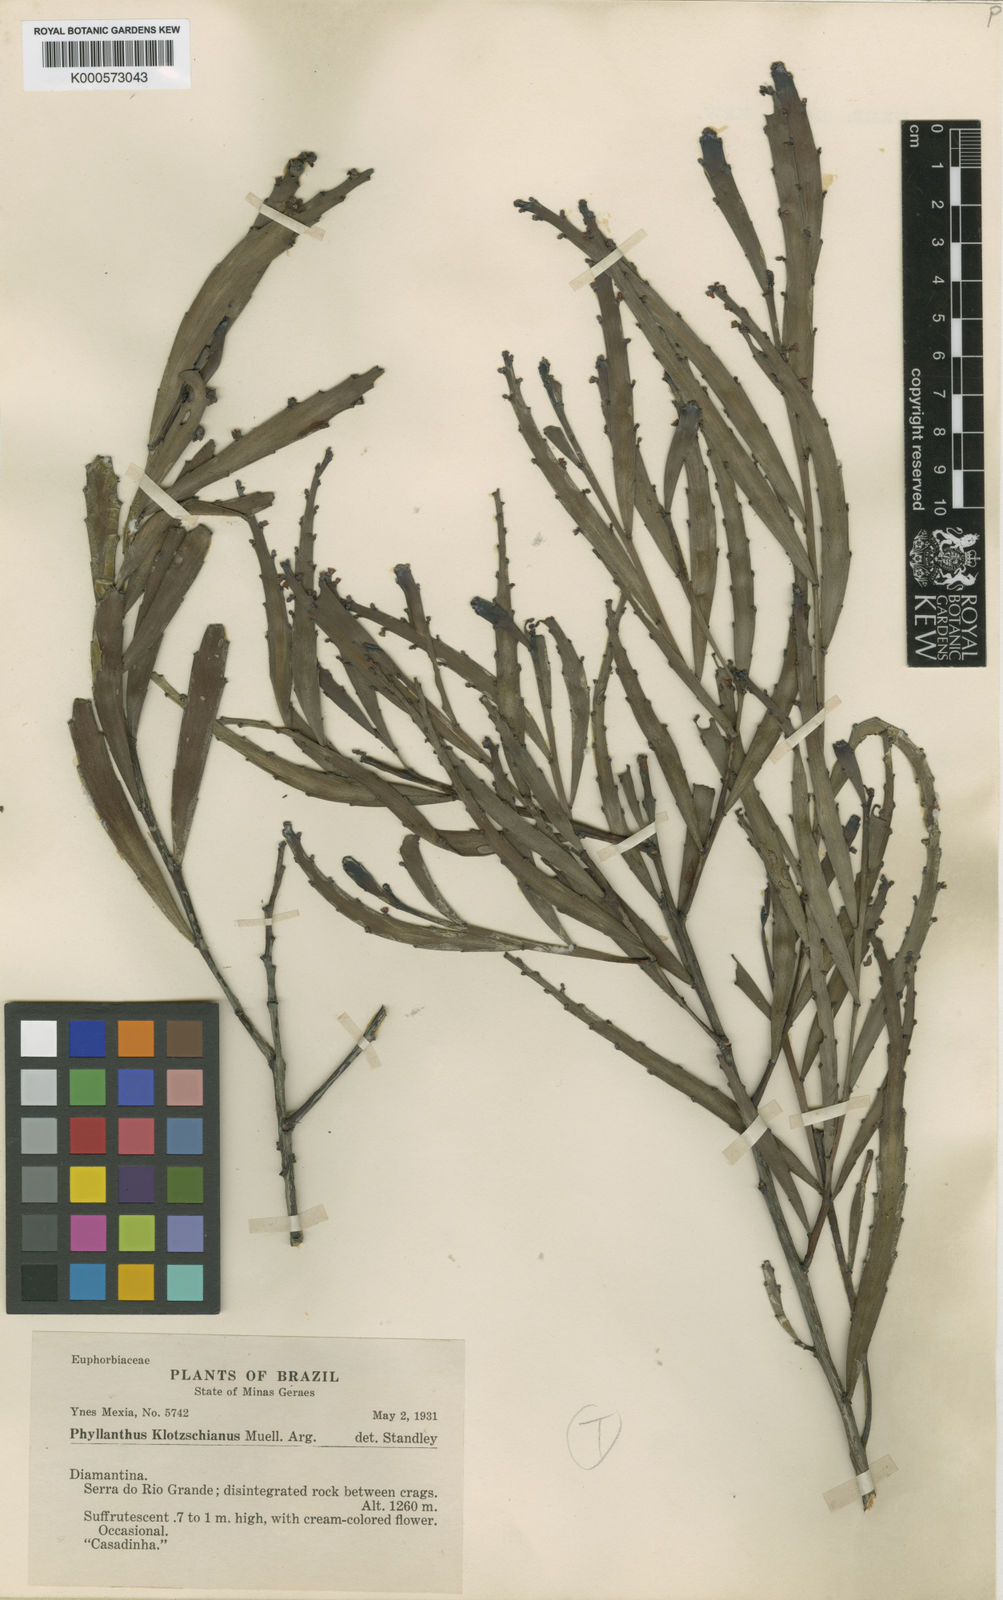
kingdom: Plantae
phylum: Tracheophyta
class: Magnoliopsida
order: Malpighiales
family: Phyllanthaceae
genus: Phyllanthus
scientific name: Phyllanthus
